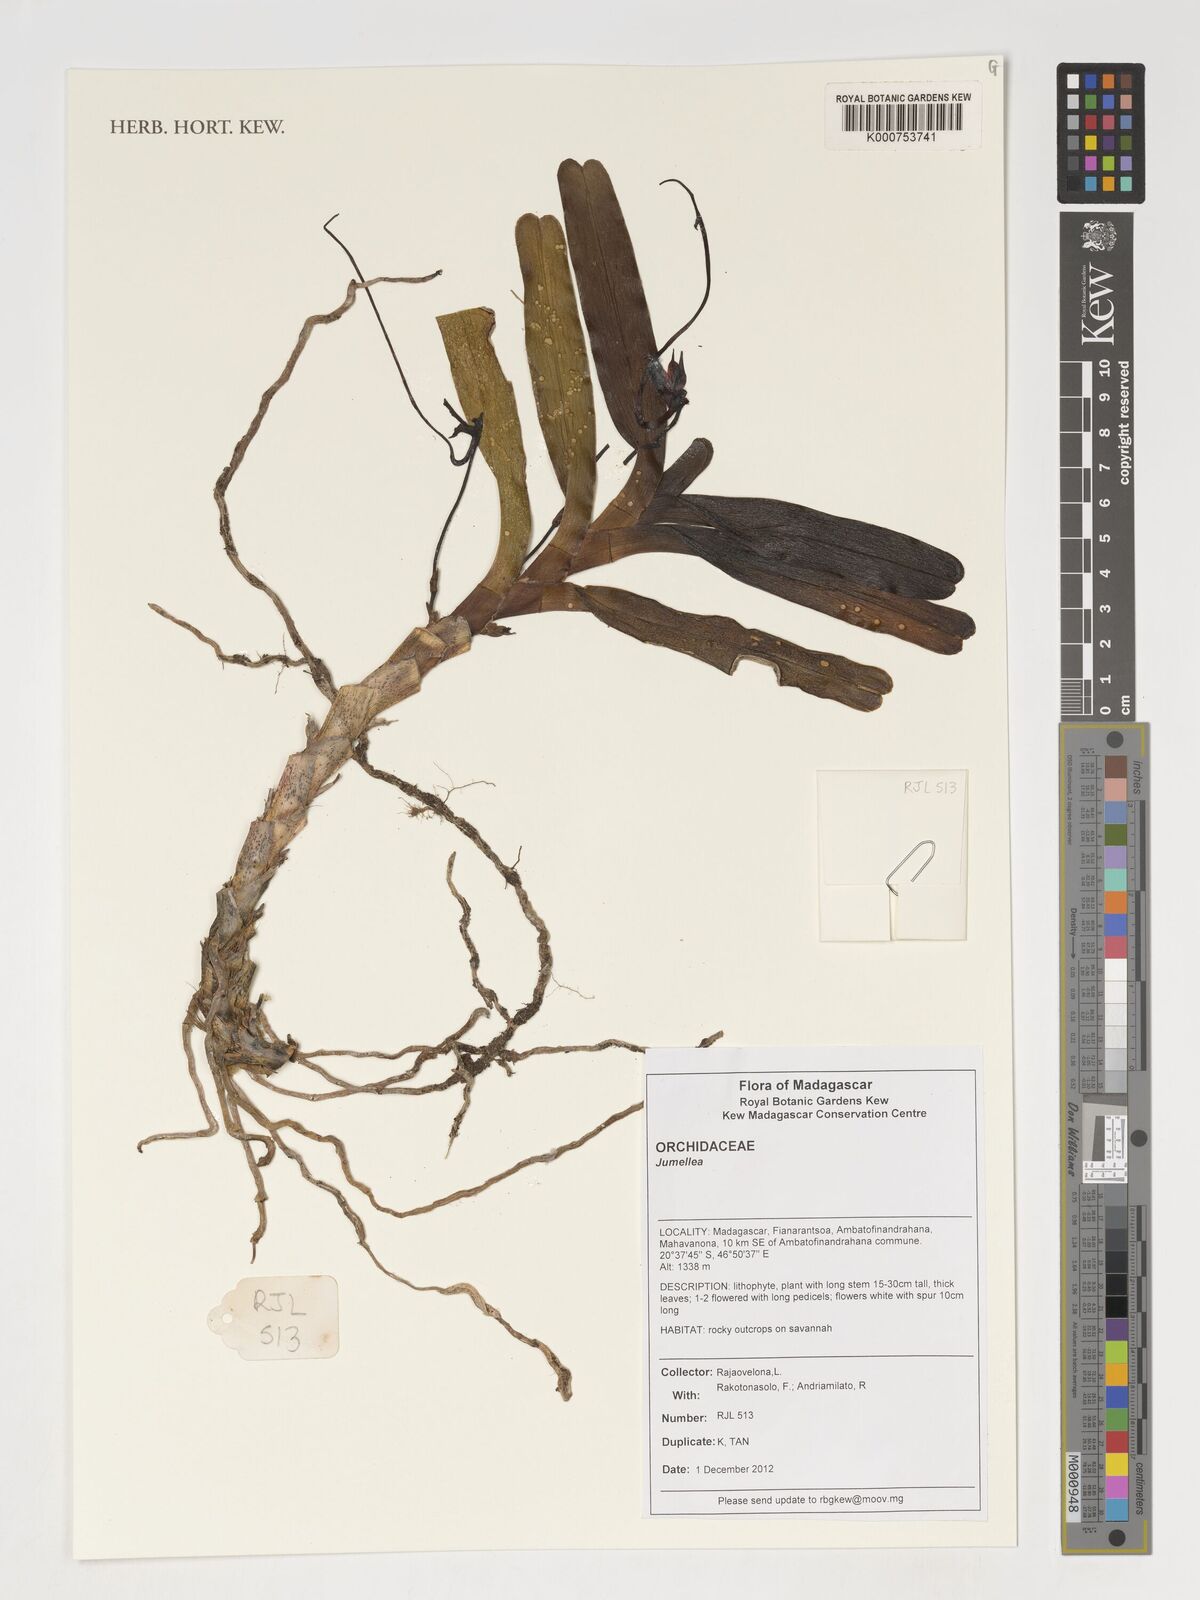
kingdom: Plantae
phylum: Tracheophyta
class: Liliopsida
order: Asparagales
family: Orchidaceae
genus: Jumellea
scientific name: Jumellea
